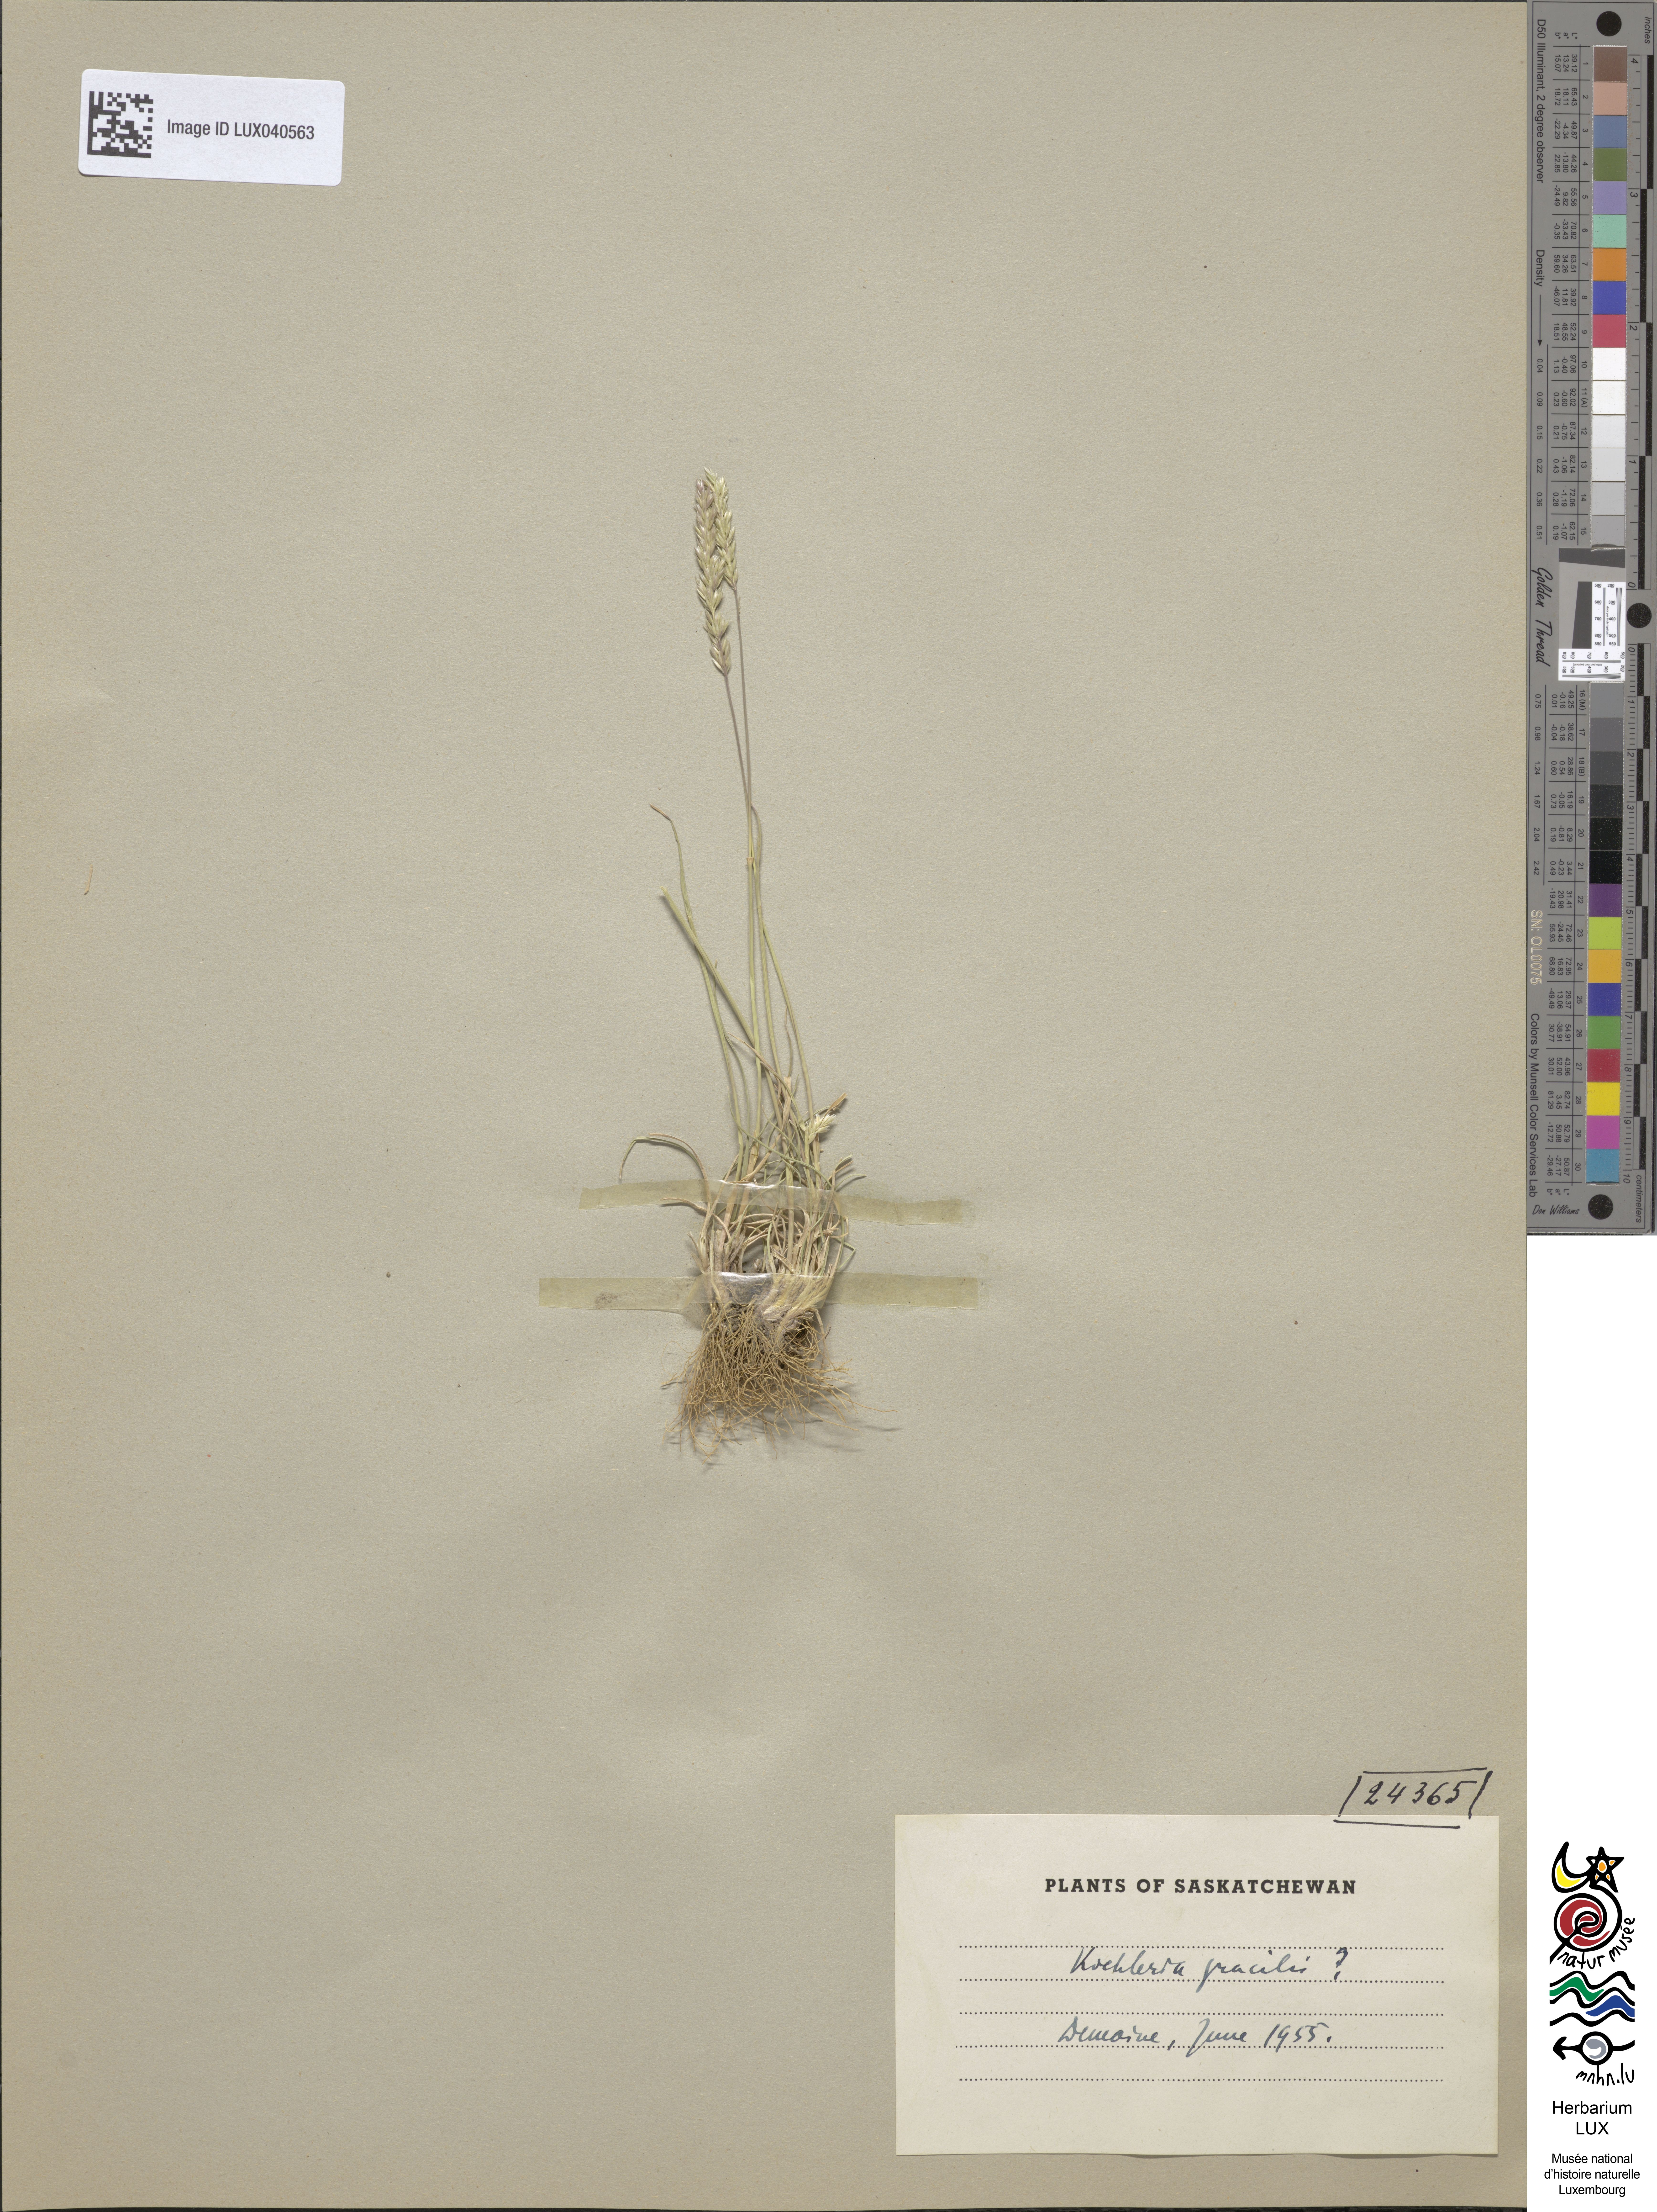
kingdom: Plantae
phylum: Tracheophyta
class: Liliopsida
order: Poales
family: Poaceae
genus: Koeleria
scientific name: Koeleria macrantha
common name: Crested hair-grass
